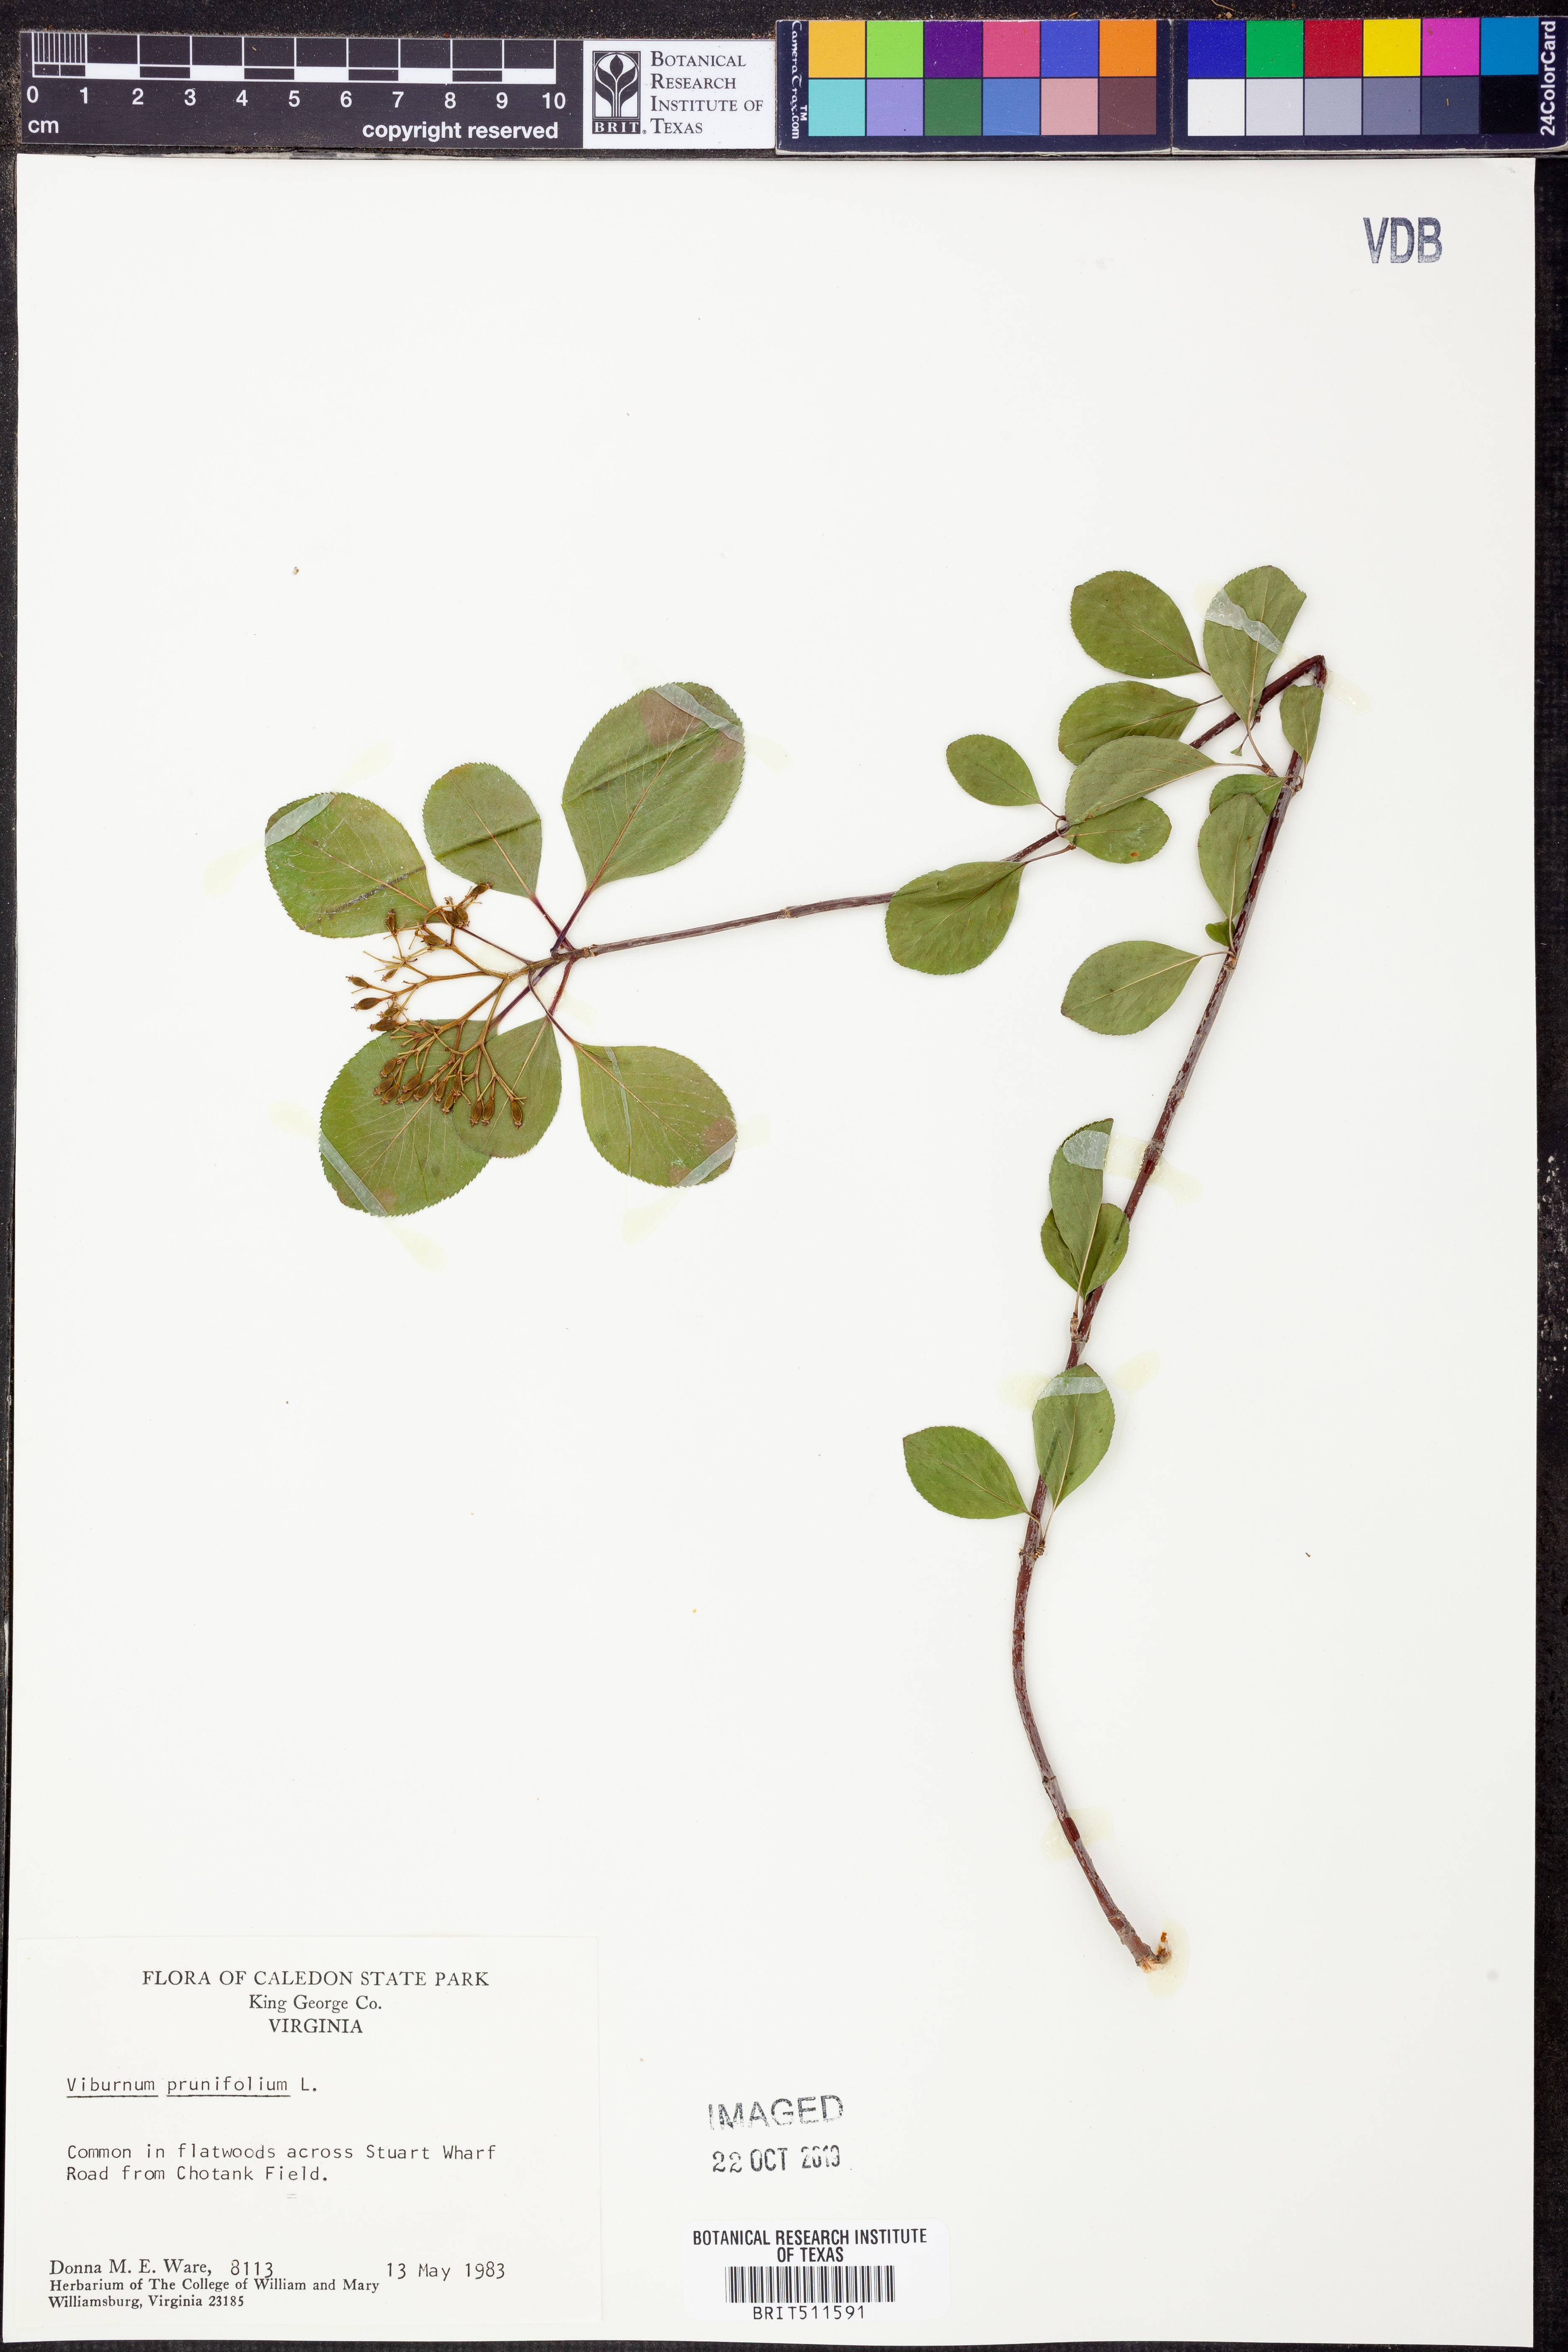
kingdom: Plantae
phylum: Tracheophyta
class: Magnoliopsida
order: Dipsacales
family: Viburnaceae
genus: Viburnum
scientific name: Viburnum prunifolium
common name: Black haw
